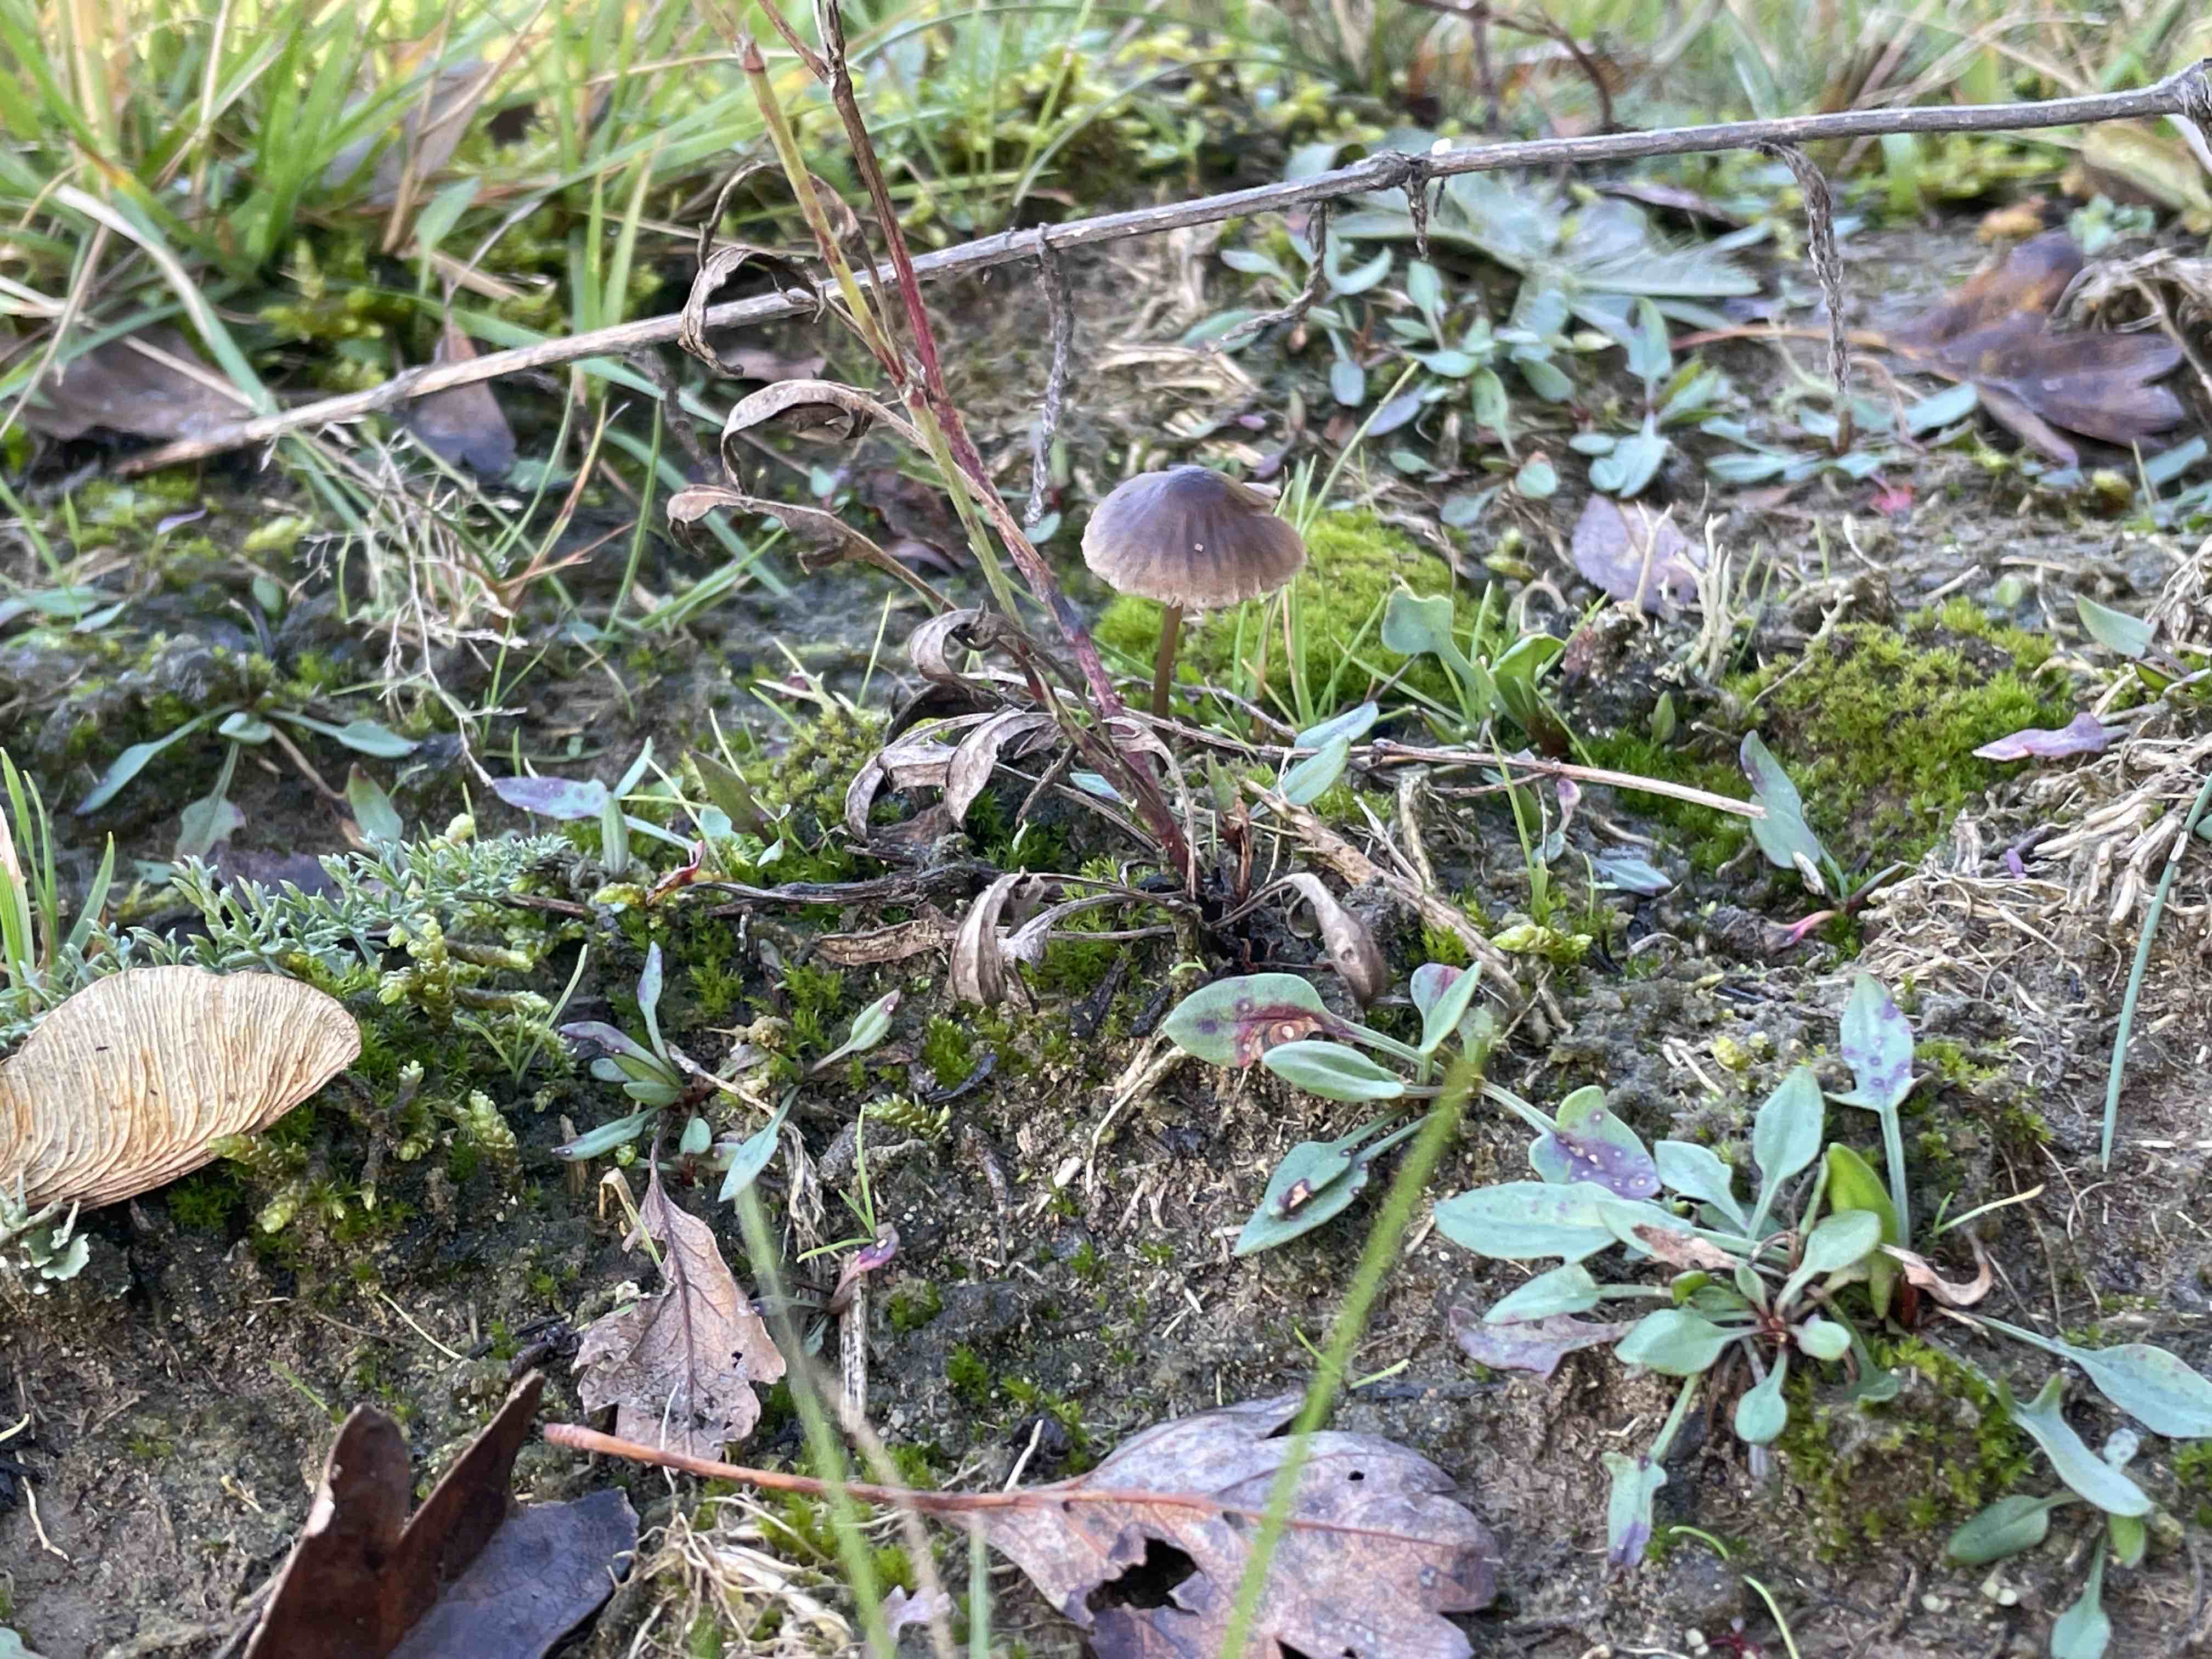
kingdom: Fungi
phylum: Basidiomycota
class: Agaricomycetes
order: Agaricales
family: Mycenaceae
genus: Mycena
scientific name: Mycena filopes
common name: Iodine bonnet
